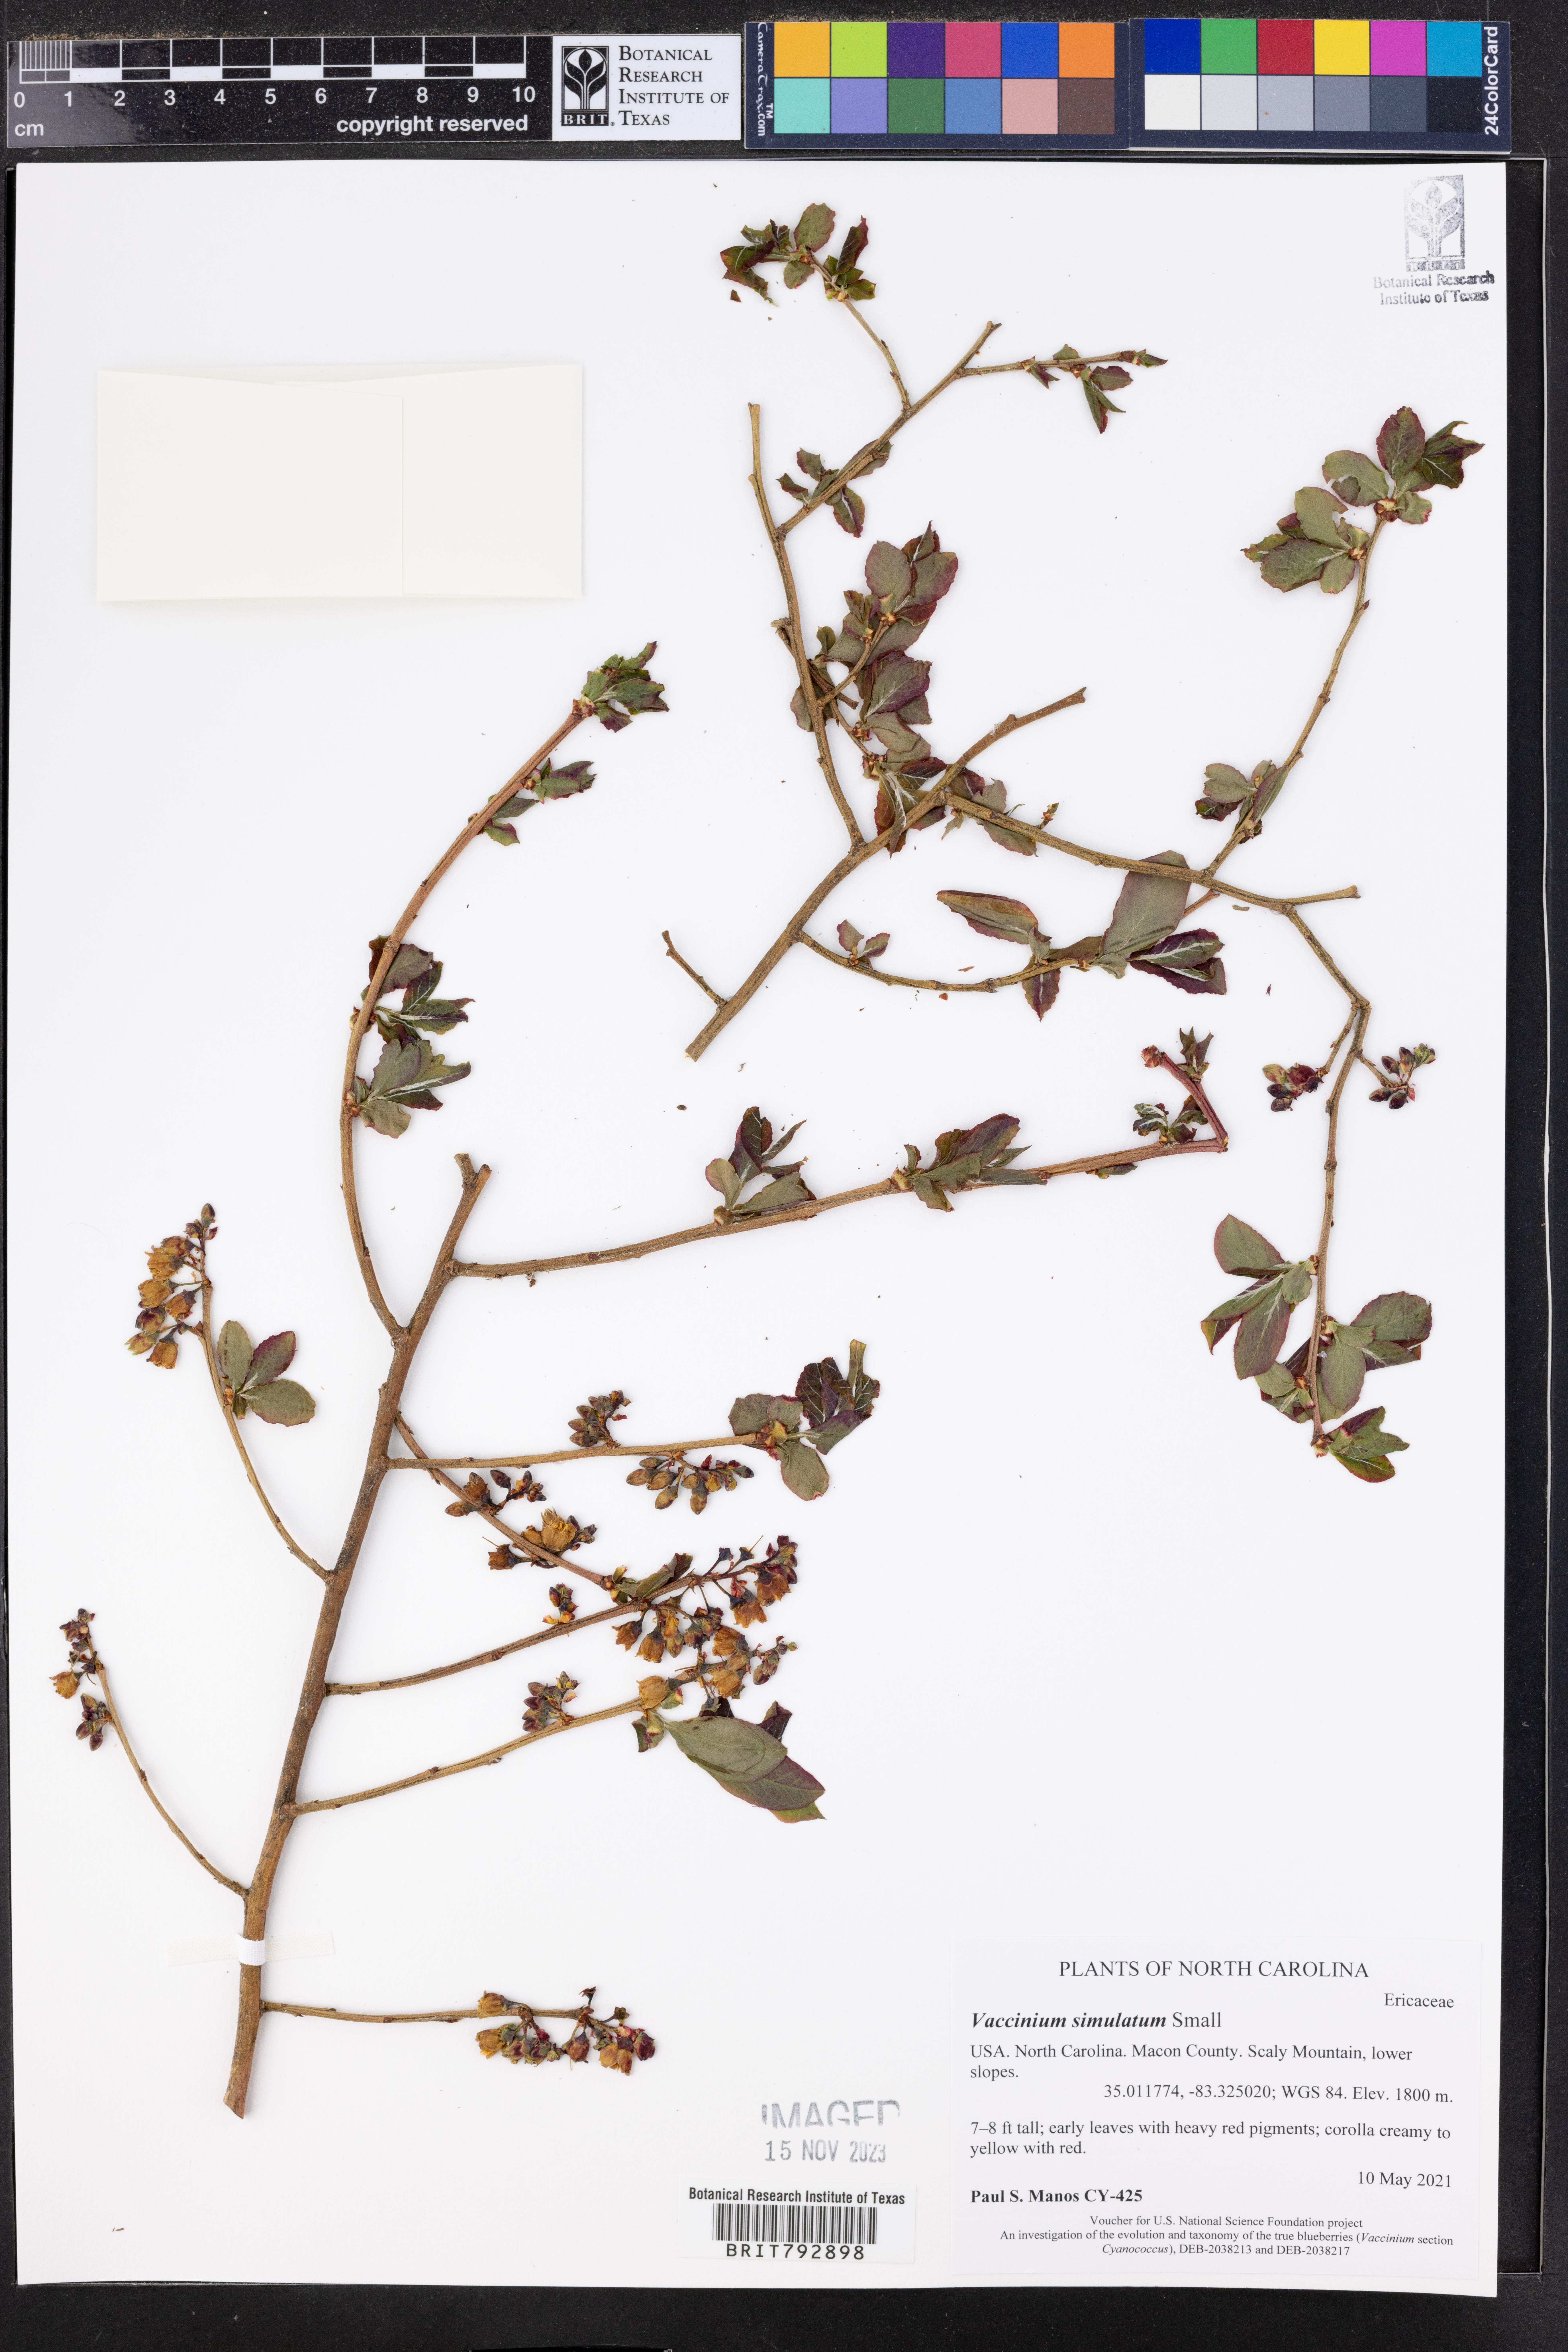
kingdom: Plantae
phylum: Tracheophyta
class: Magnoliopsida
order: Ericales
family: Ericaceae
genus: Vaccinium
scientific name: Vaccinium corymbosum
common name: Blueberry
